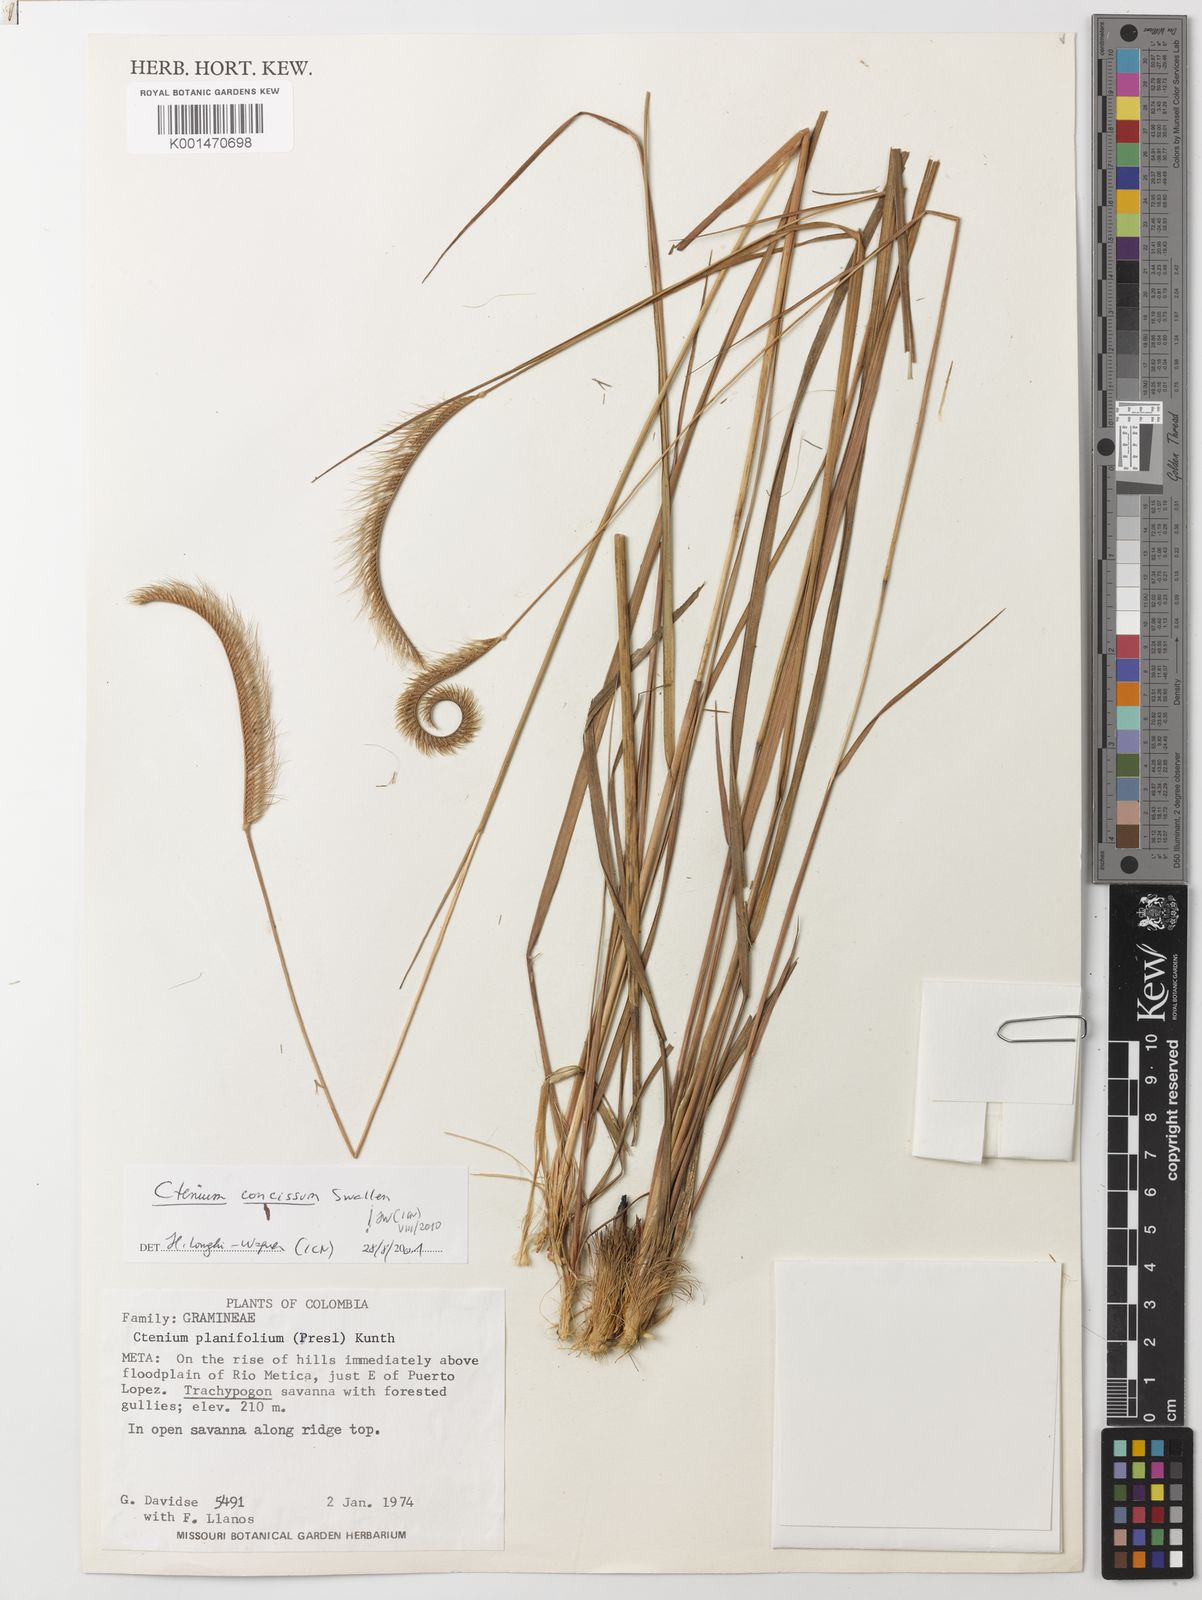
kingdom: Plantae
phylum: Tracheophyta
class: Liliopsida
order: Poales
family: Poaceae
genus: Ctenium
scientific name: Ctenium concissum
